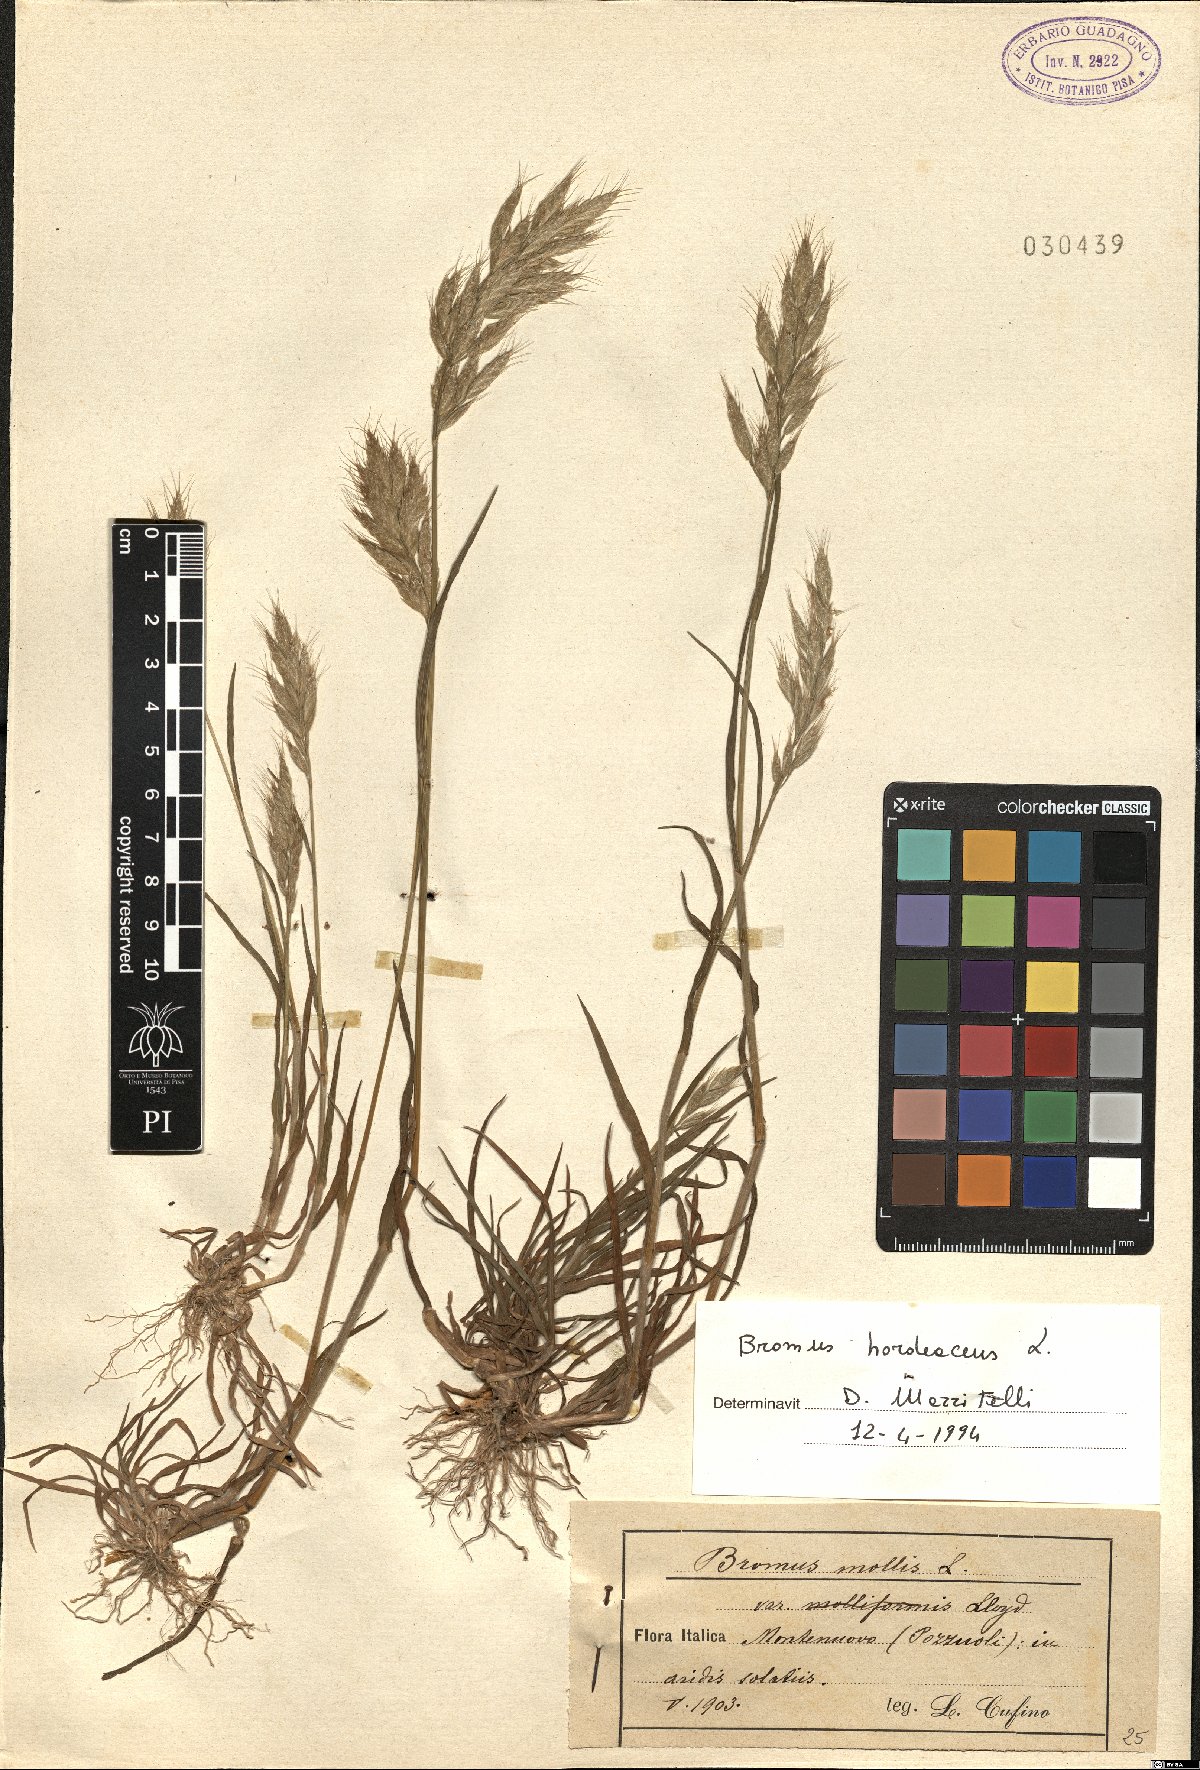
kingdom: Plantae
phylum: Tracheophyta
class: Liliopsida
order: Poales
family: Poaceae
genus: Bromus
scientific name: Bromus hordeaceus
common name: Soft brome
